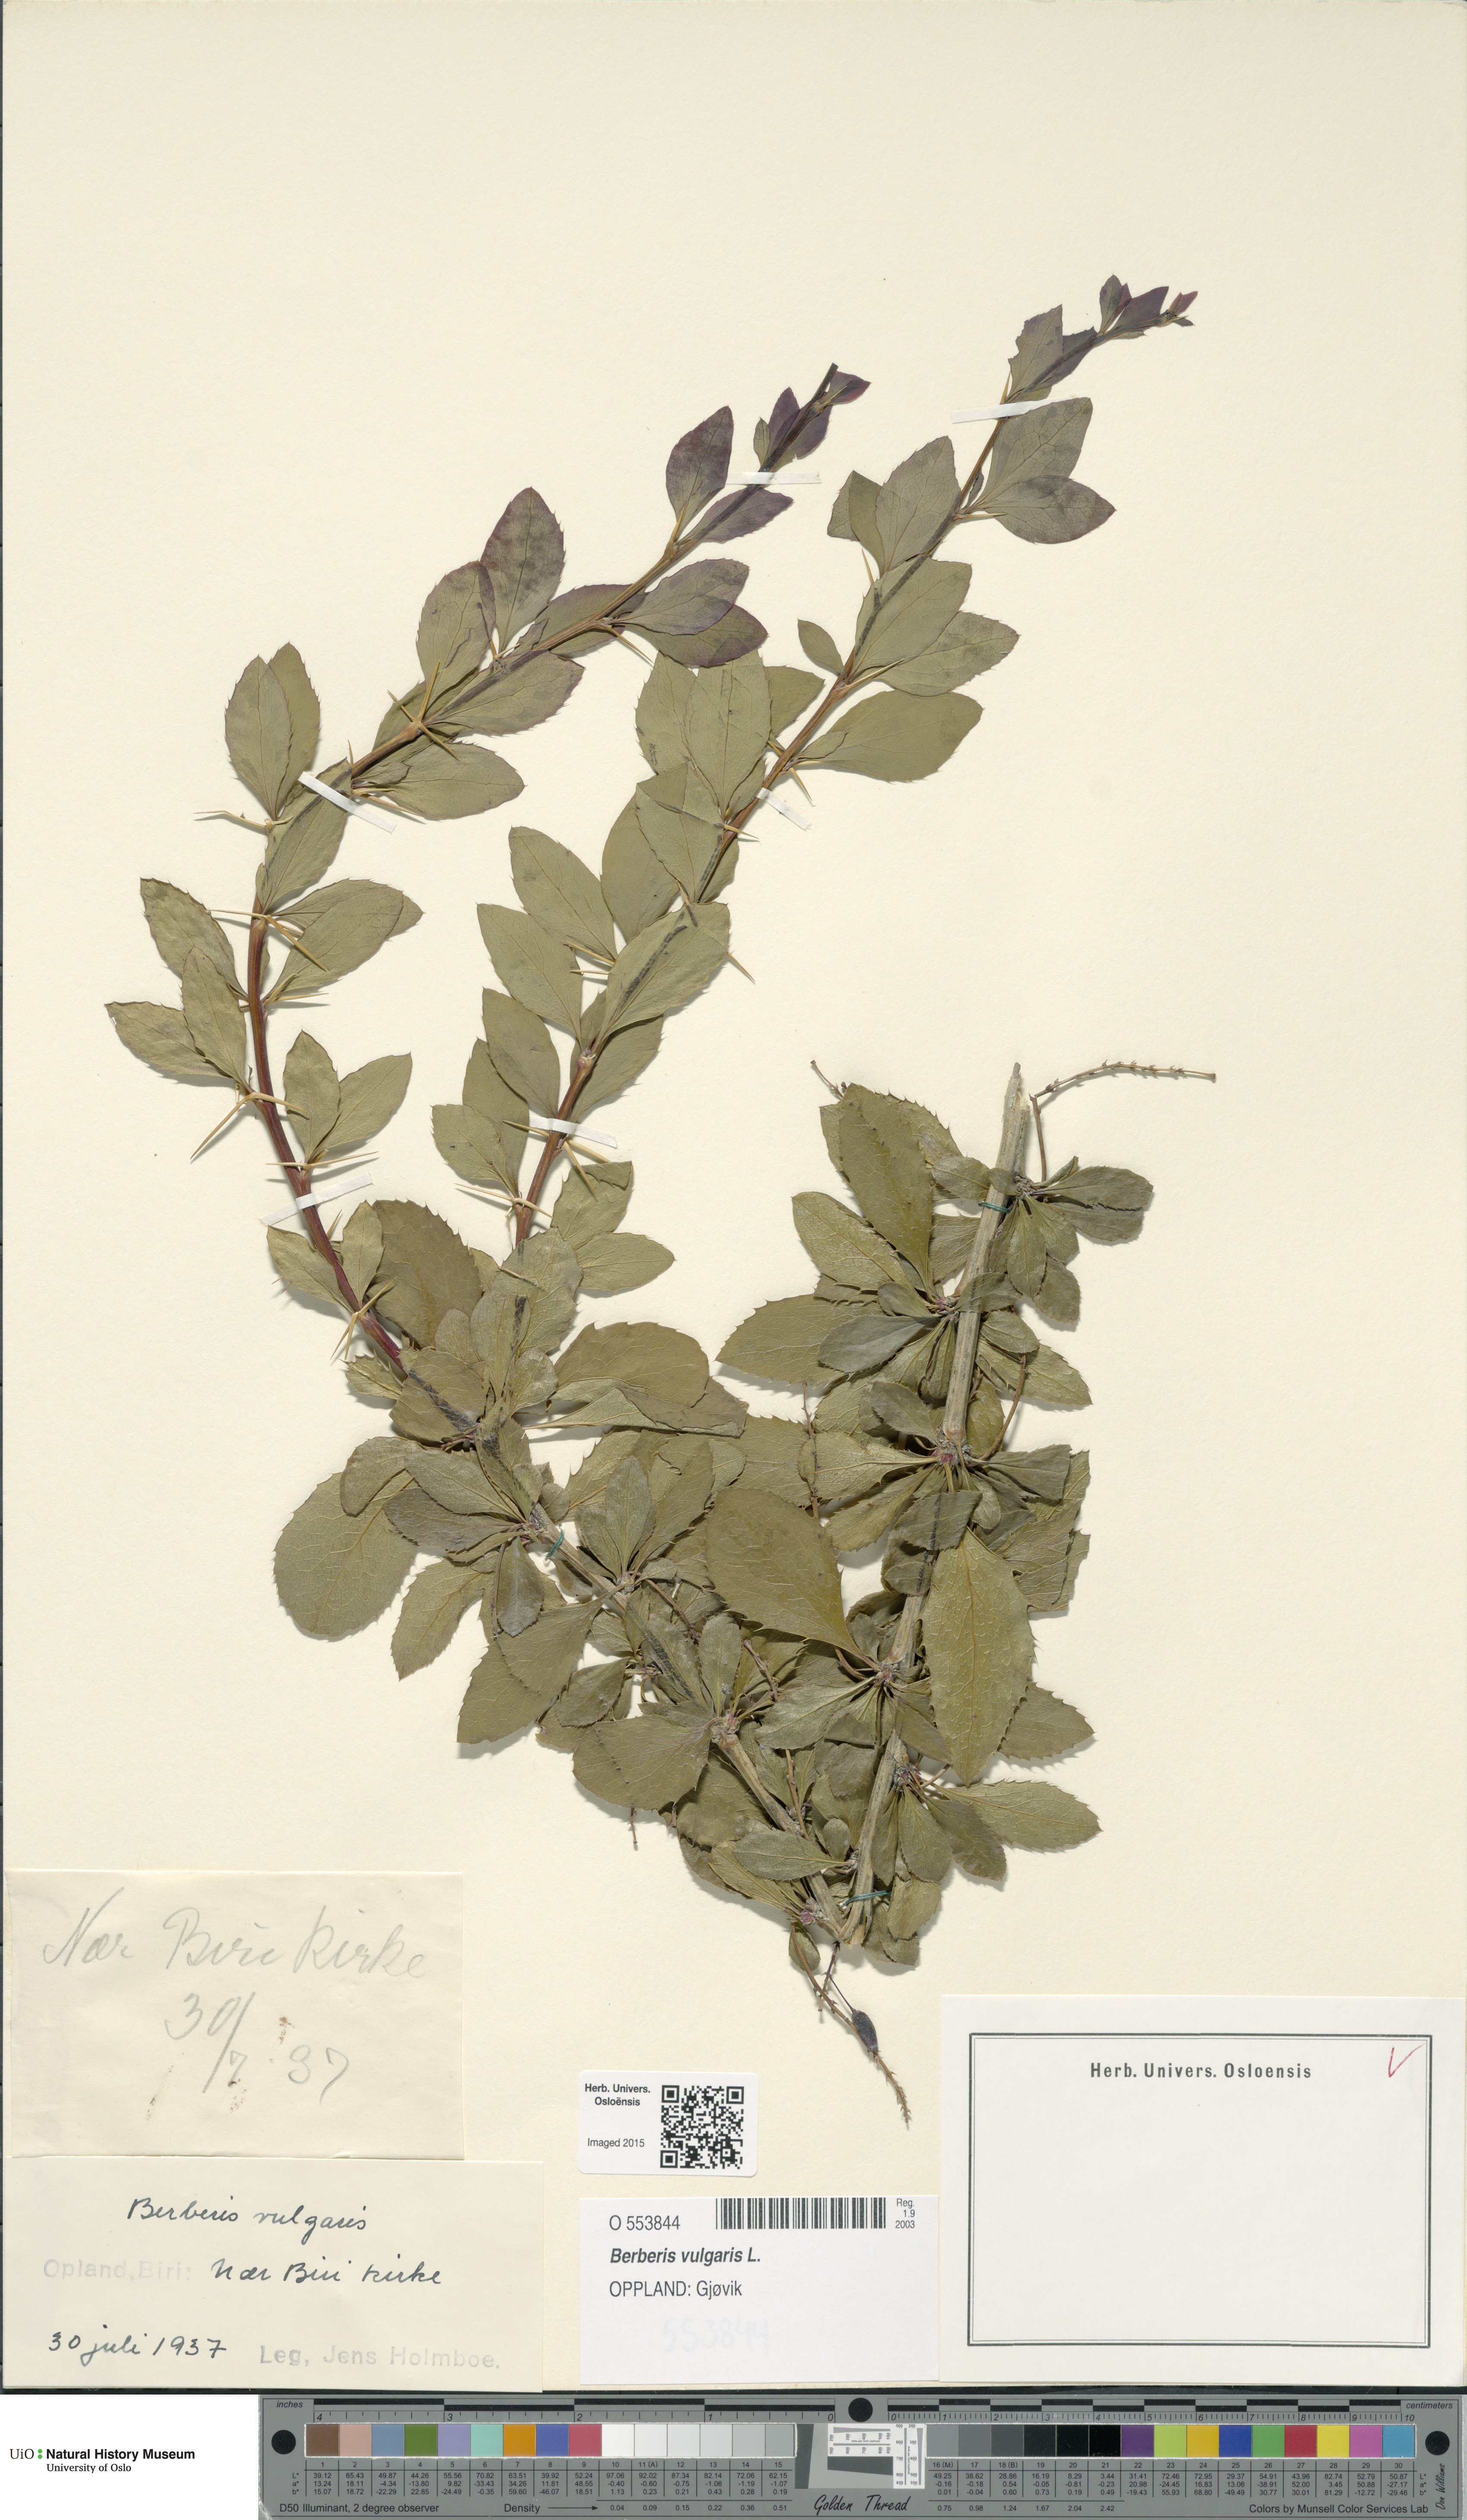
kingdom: Plantae
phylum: Tracheophyta
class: Magnoliopsida
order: Ranunculales
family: Berberidaceae
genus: Berberis
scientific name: Berberis vulgaris
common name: Barberry
